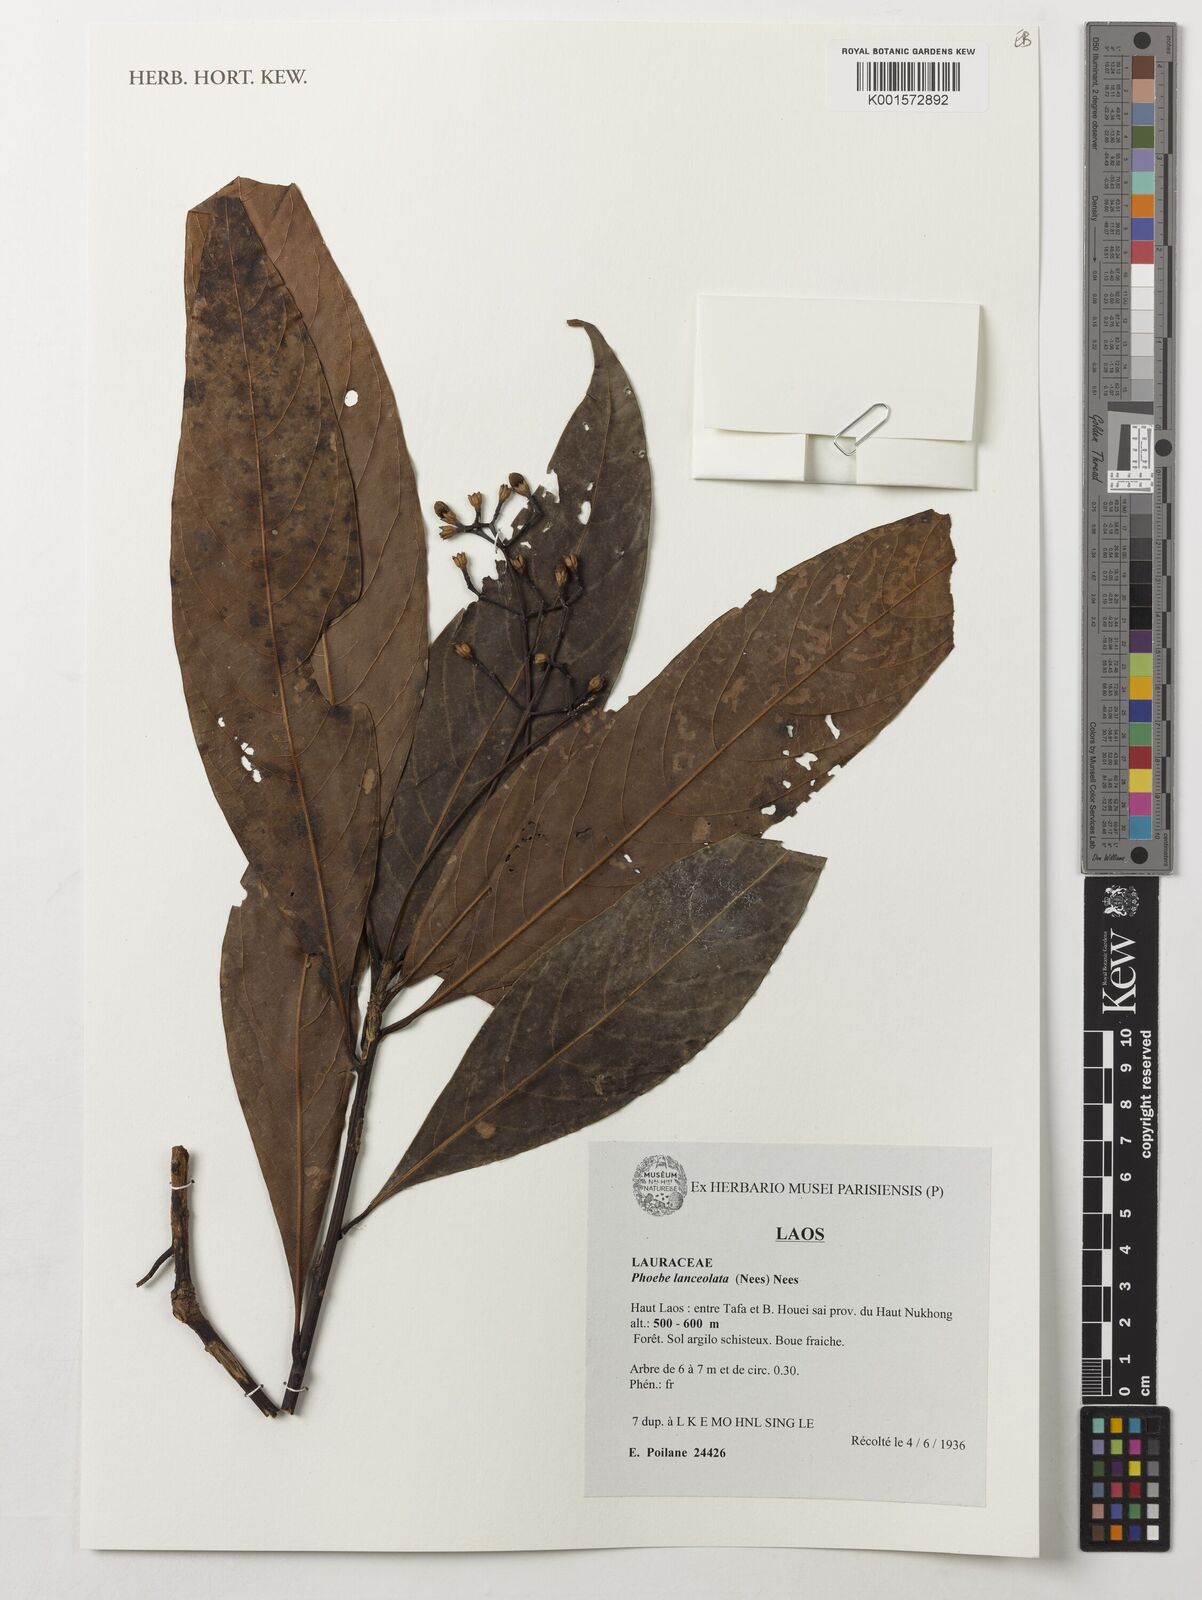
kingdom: Plantae
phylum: Tracheophyta
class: Magnoliopsida
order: Laurales
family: Lauraceae
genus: Phoebe
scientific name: Phoebe lanceolata
